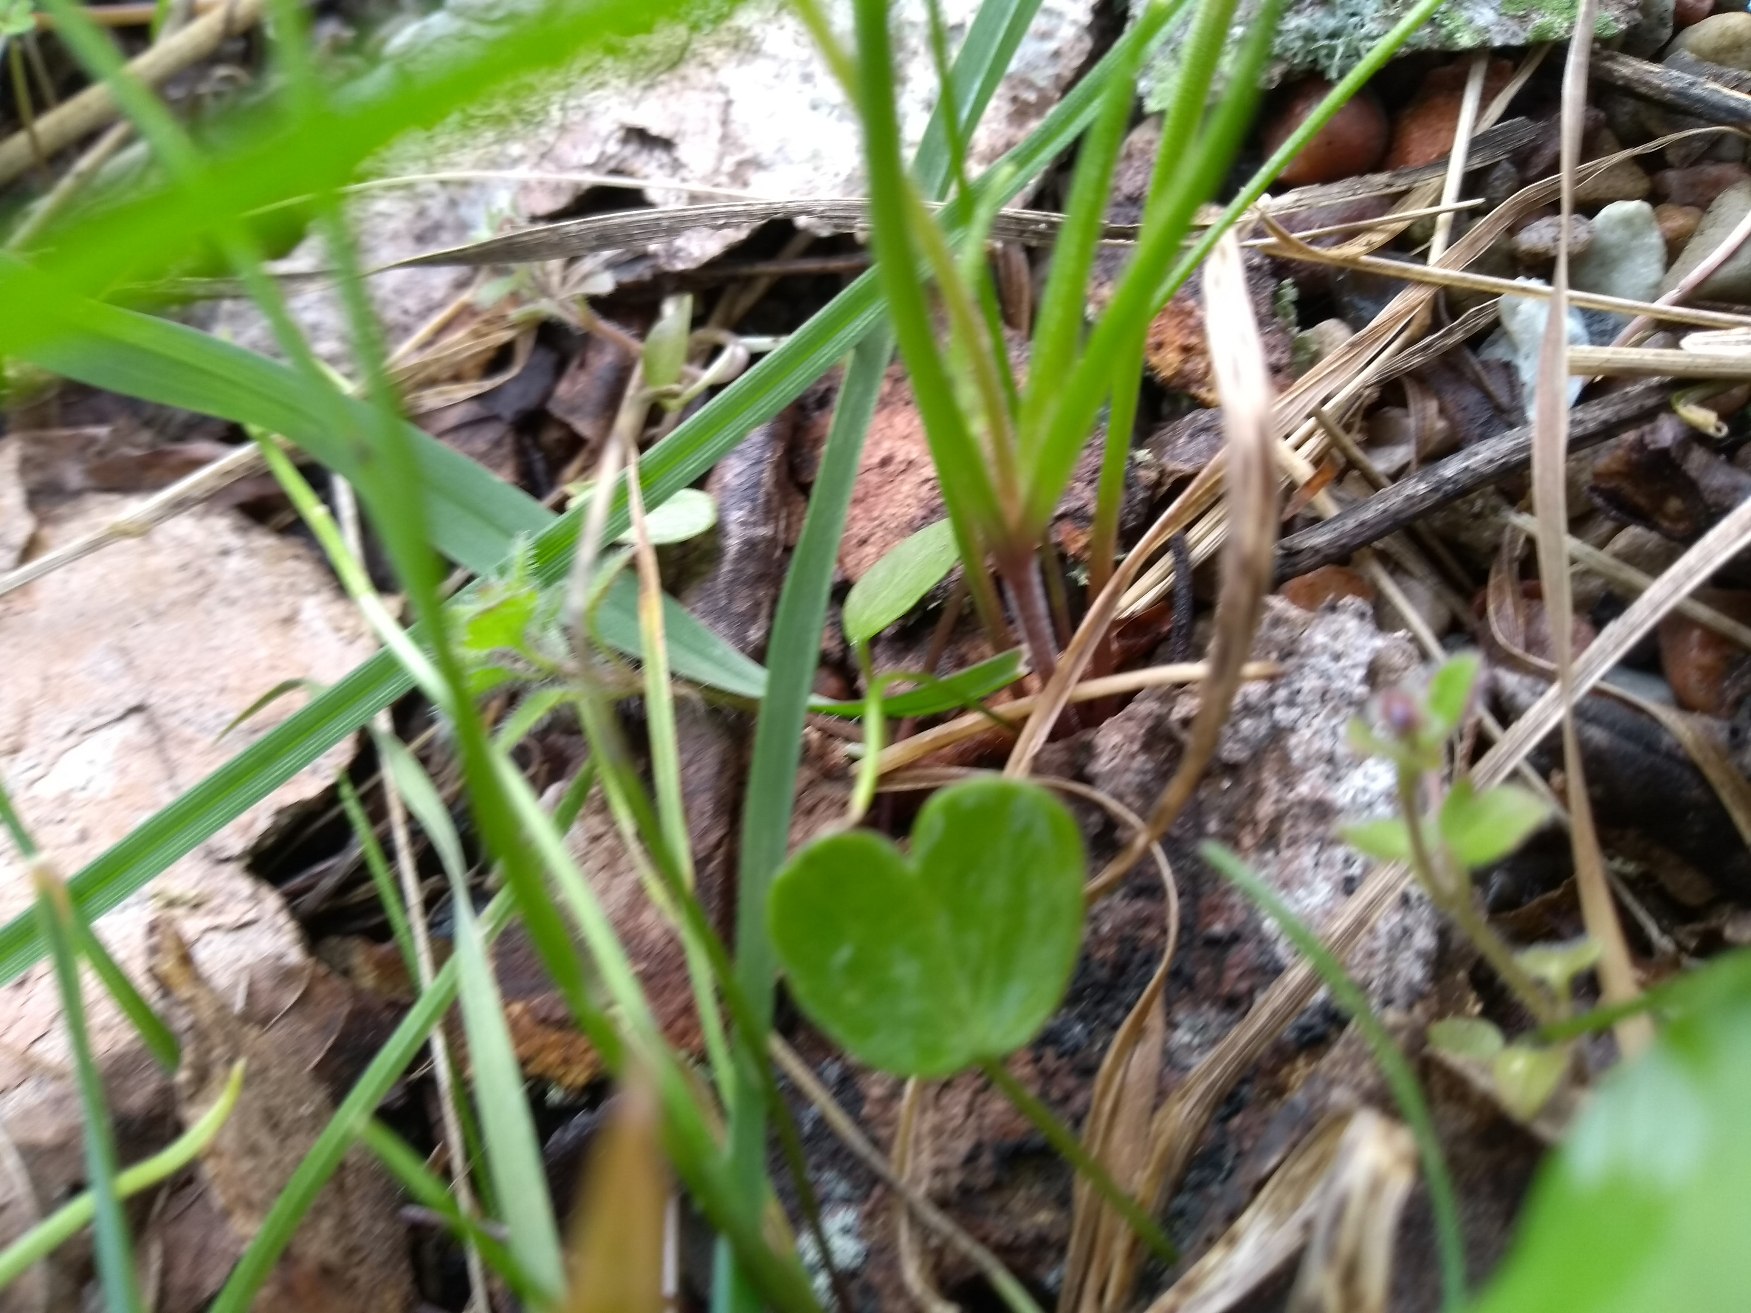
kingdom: Plantae
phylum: Tracheophyta
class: Liliopsida
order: Liliales
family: Liliaceae
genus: Gagea
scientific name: Gagea villosa
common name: Ager-guldstjerne
